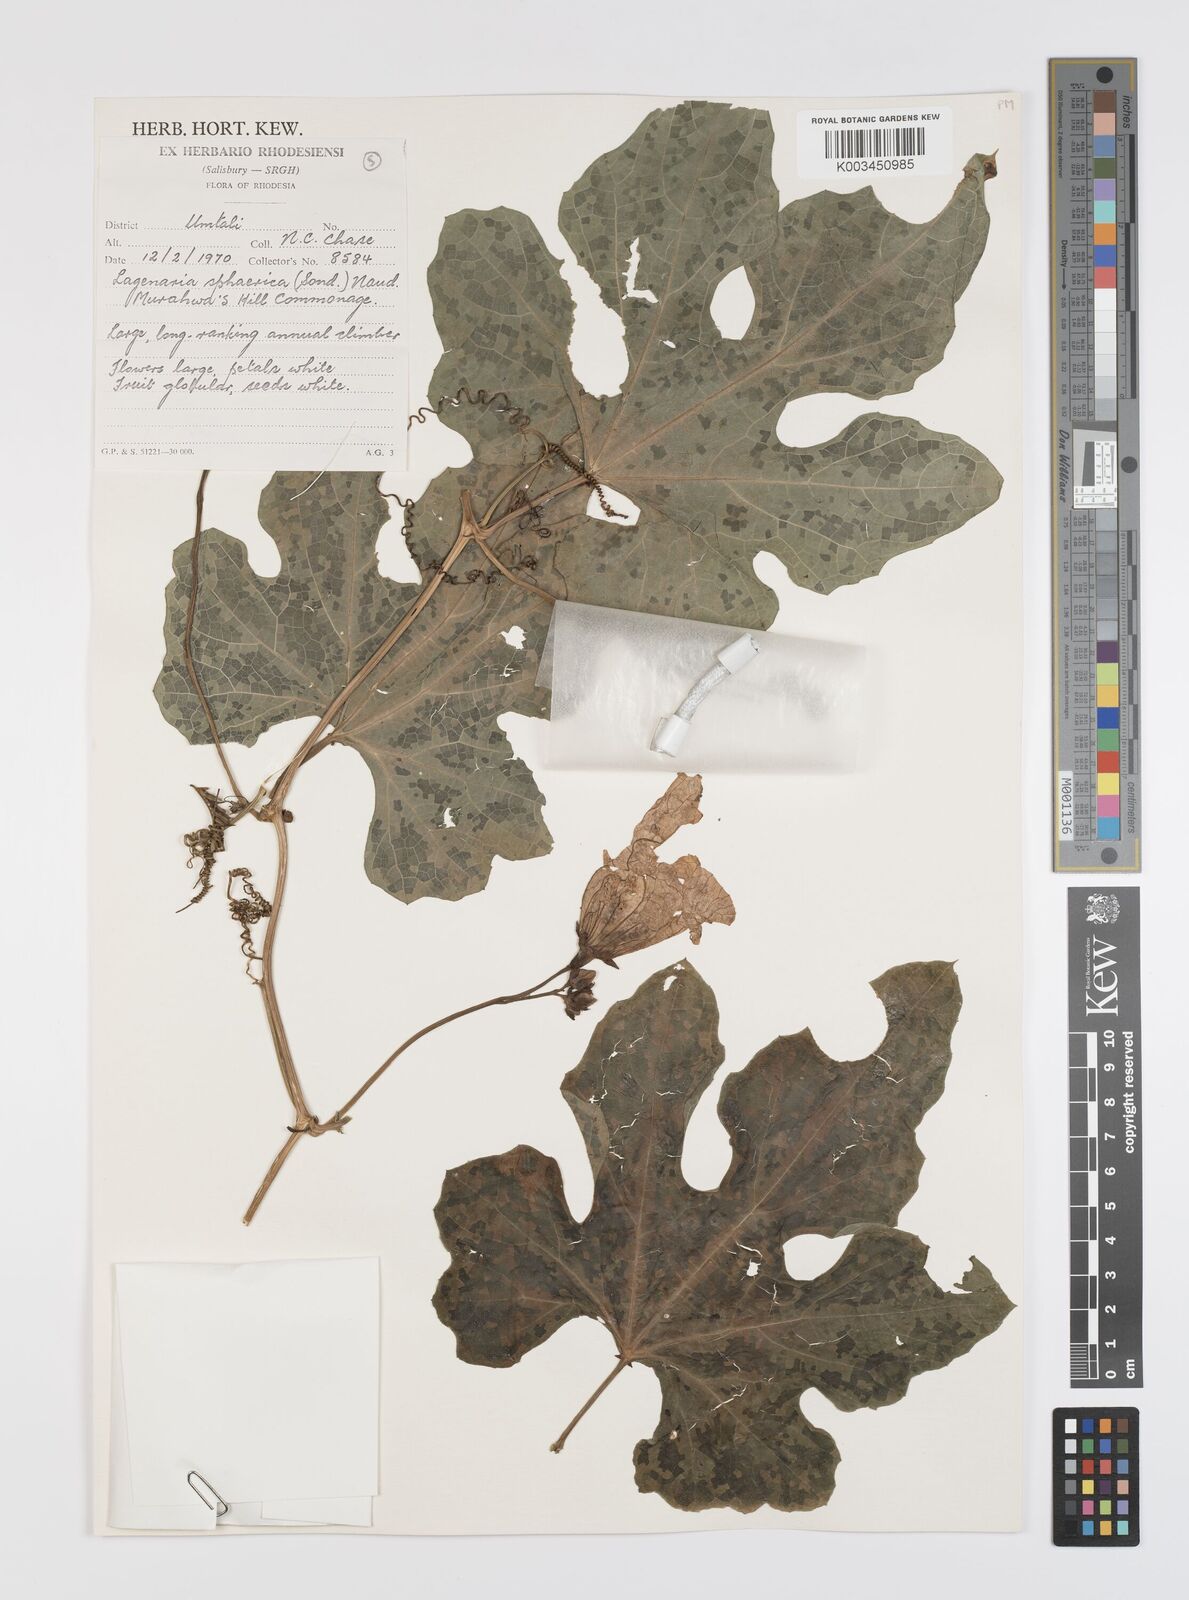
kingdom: Plantae
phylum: Tracheophyta
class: Magnoliopsida
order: Cucurbitales
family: Cucurbitaceae
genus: Lagenaria
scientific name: Lagenaria sphaerica
